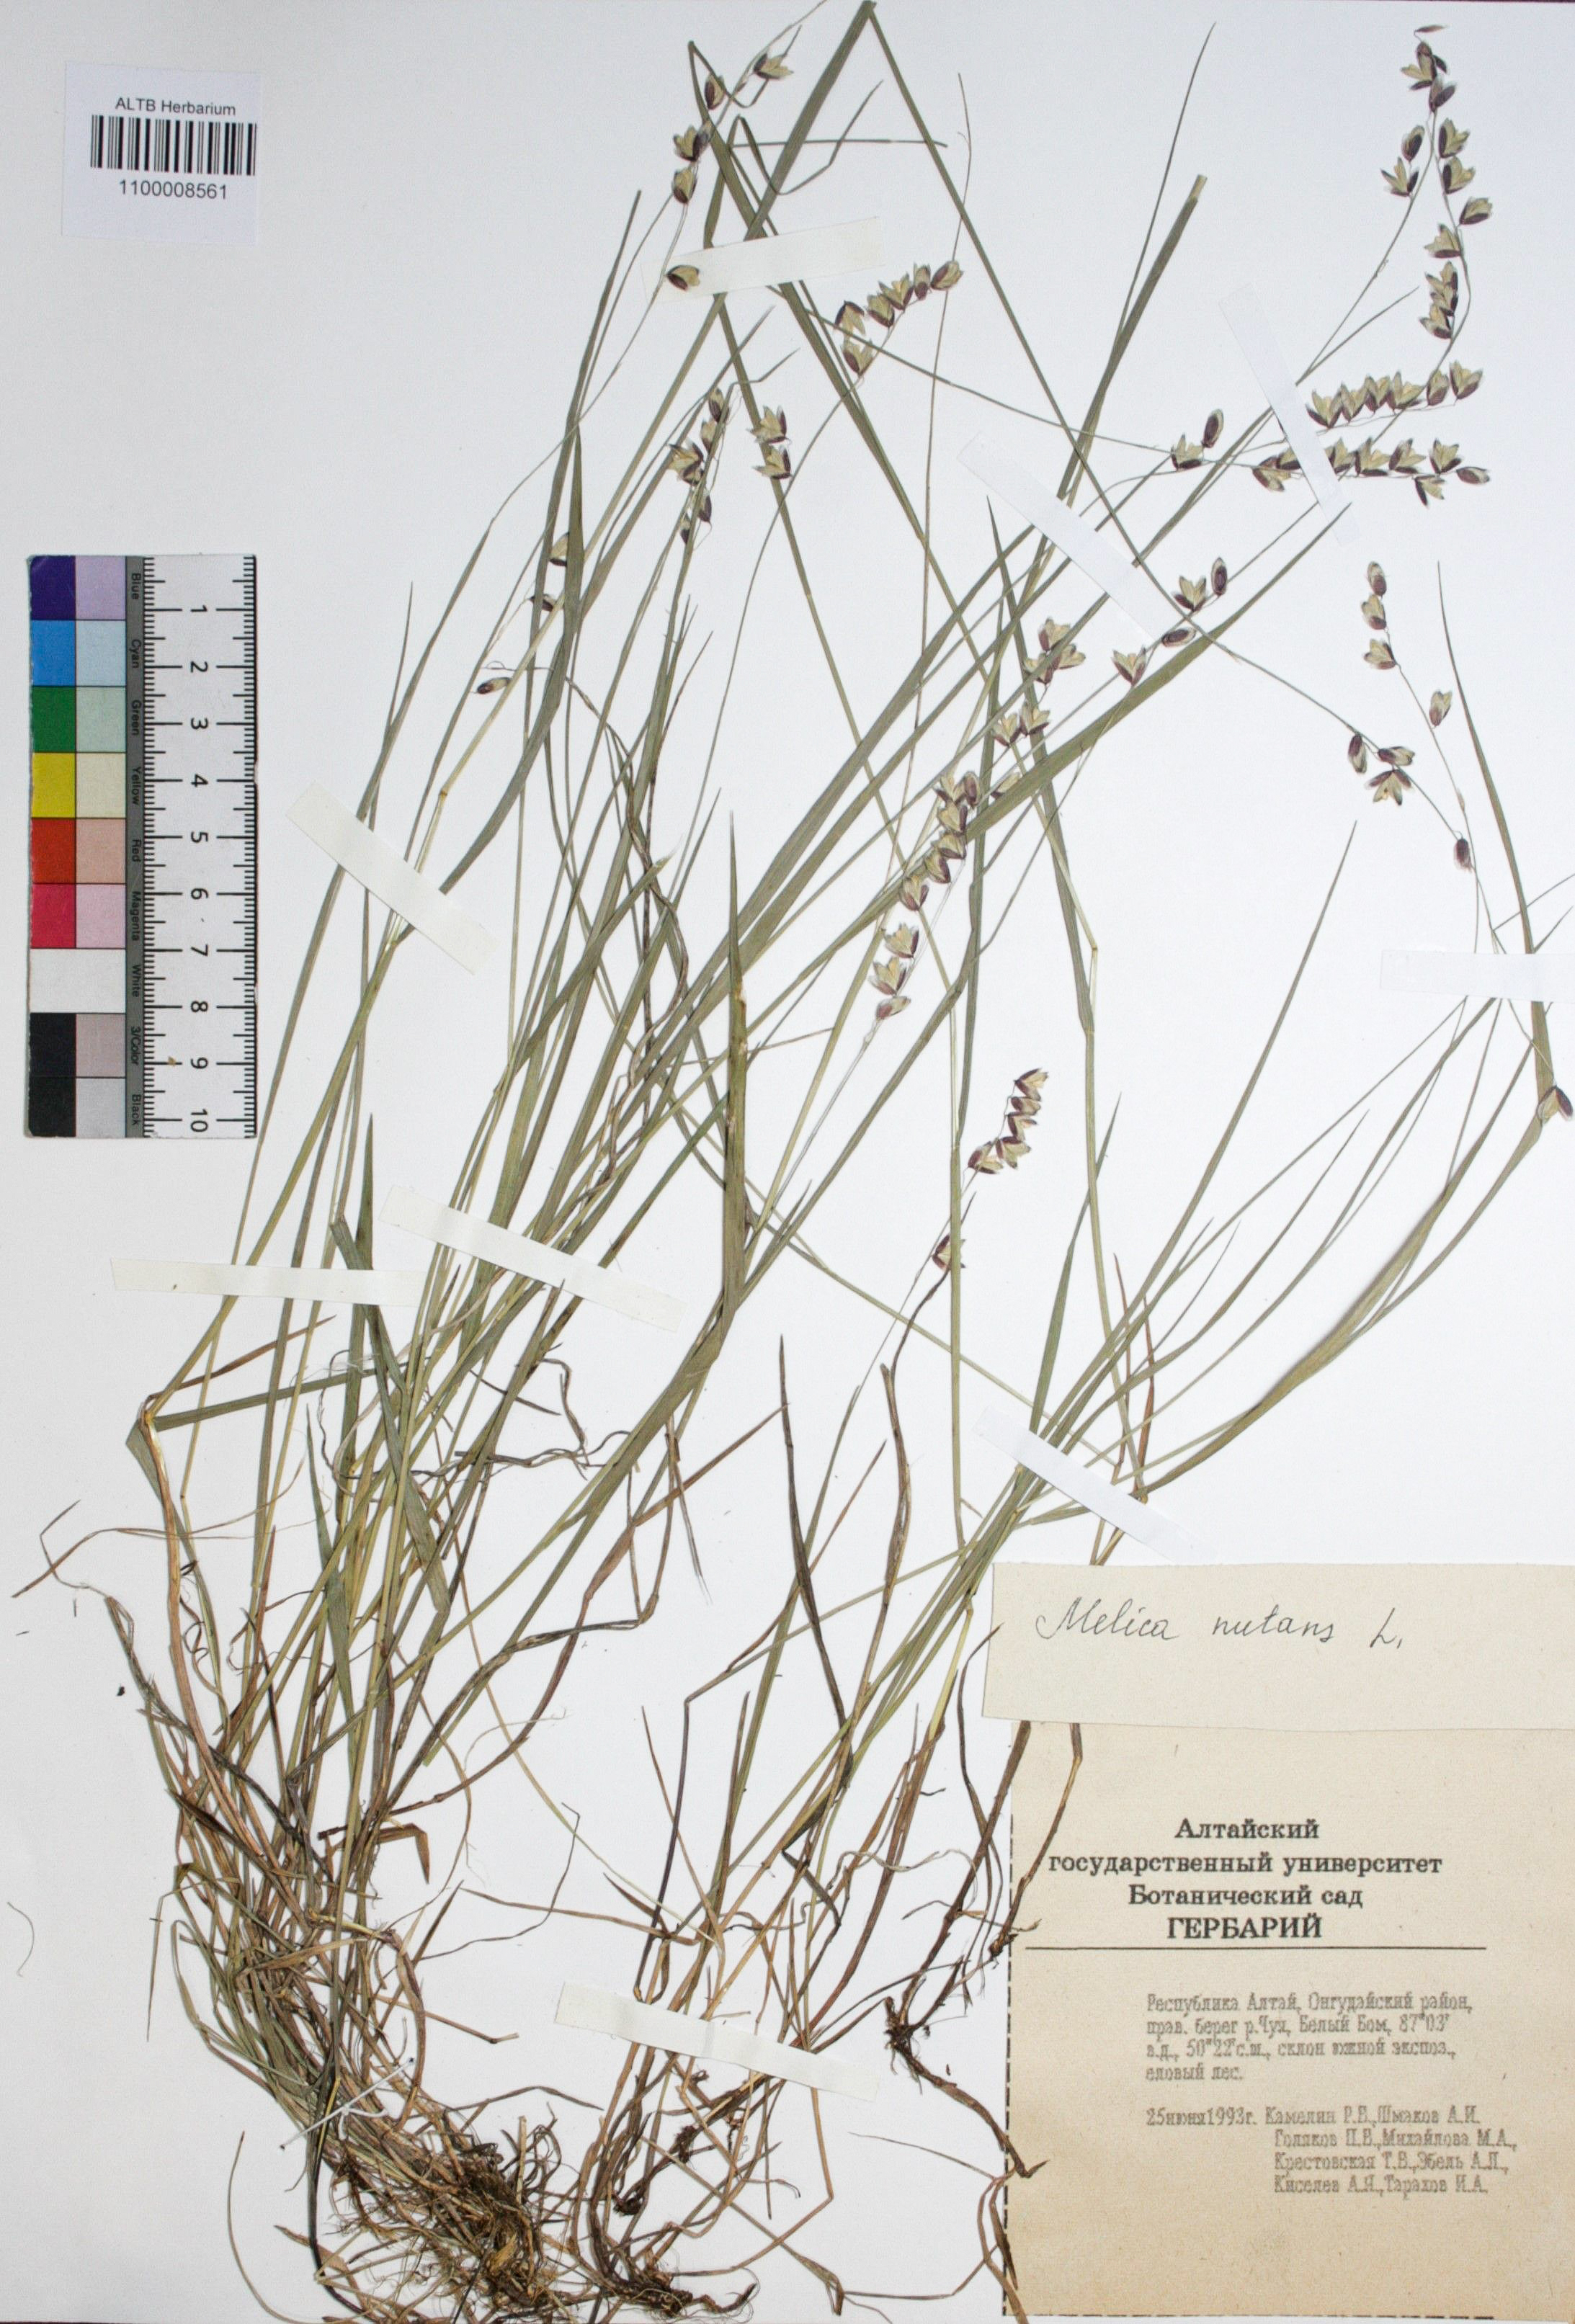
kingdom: Plantae
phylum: Tracheophyta
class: Liliopsida
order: Poales
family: Poaceae
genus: Melica
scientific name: Melica nutans
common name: Mountain melick
